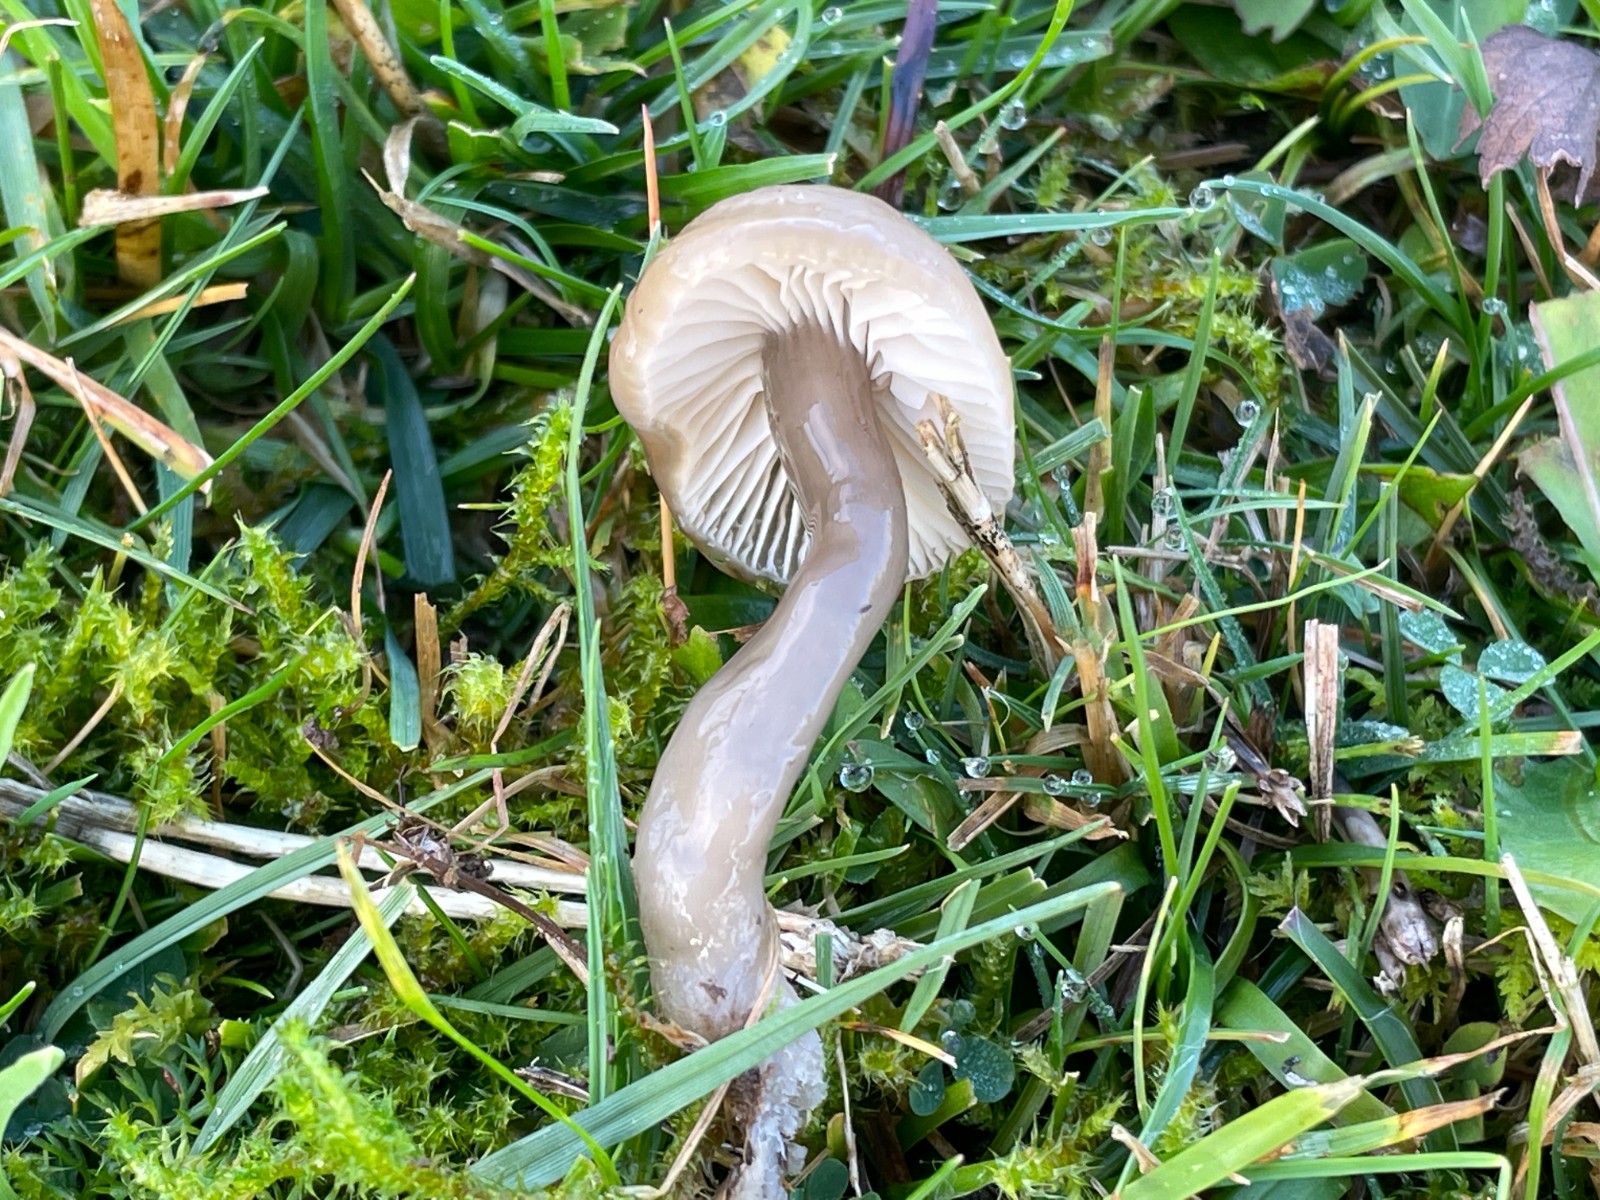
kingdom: Fungi
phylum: Basidiomycota
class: Agaricomycetes
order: Agaricales
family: Hygrophoraceae
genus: Gliophorus
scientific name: Gliophorus irrigatus
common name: slimet vokshat
